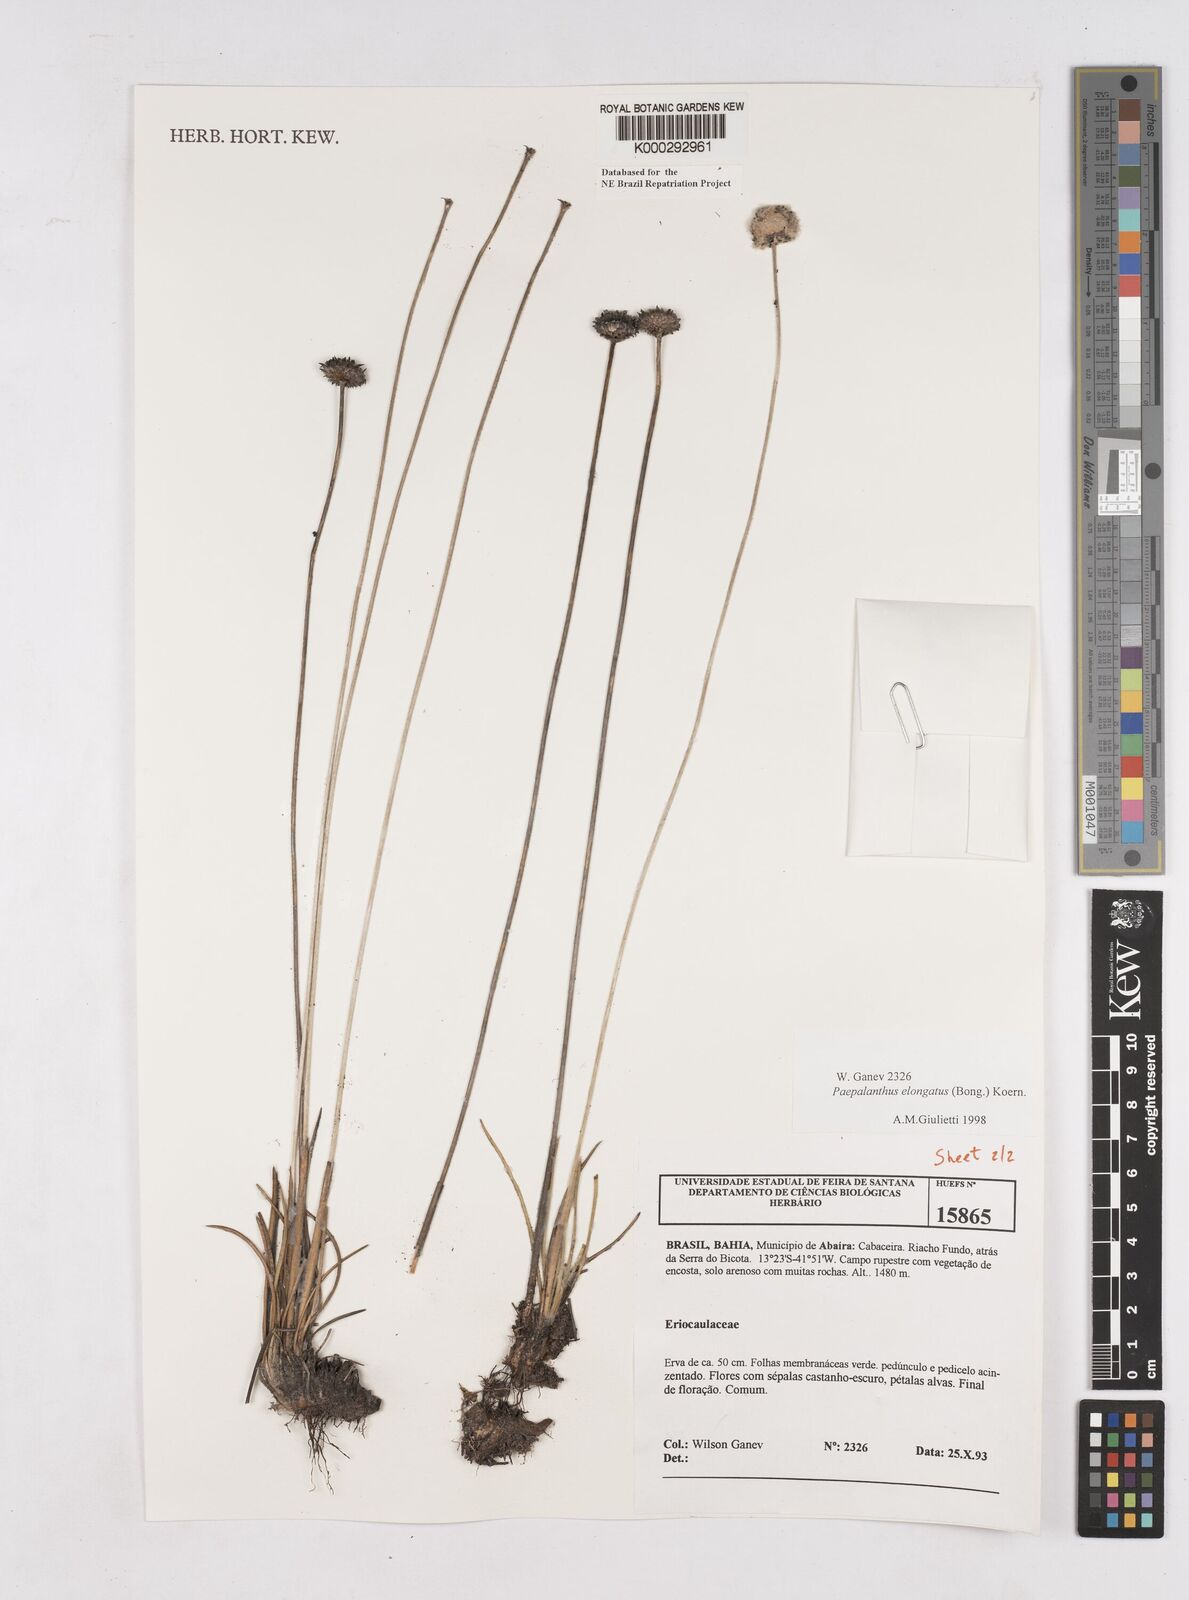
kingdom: Plantae
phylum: Tracheophyta
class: Liliopsida
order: Poales
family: Eriocaulaceae
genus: Paepalanthus
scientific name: Paepalanthus
